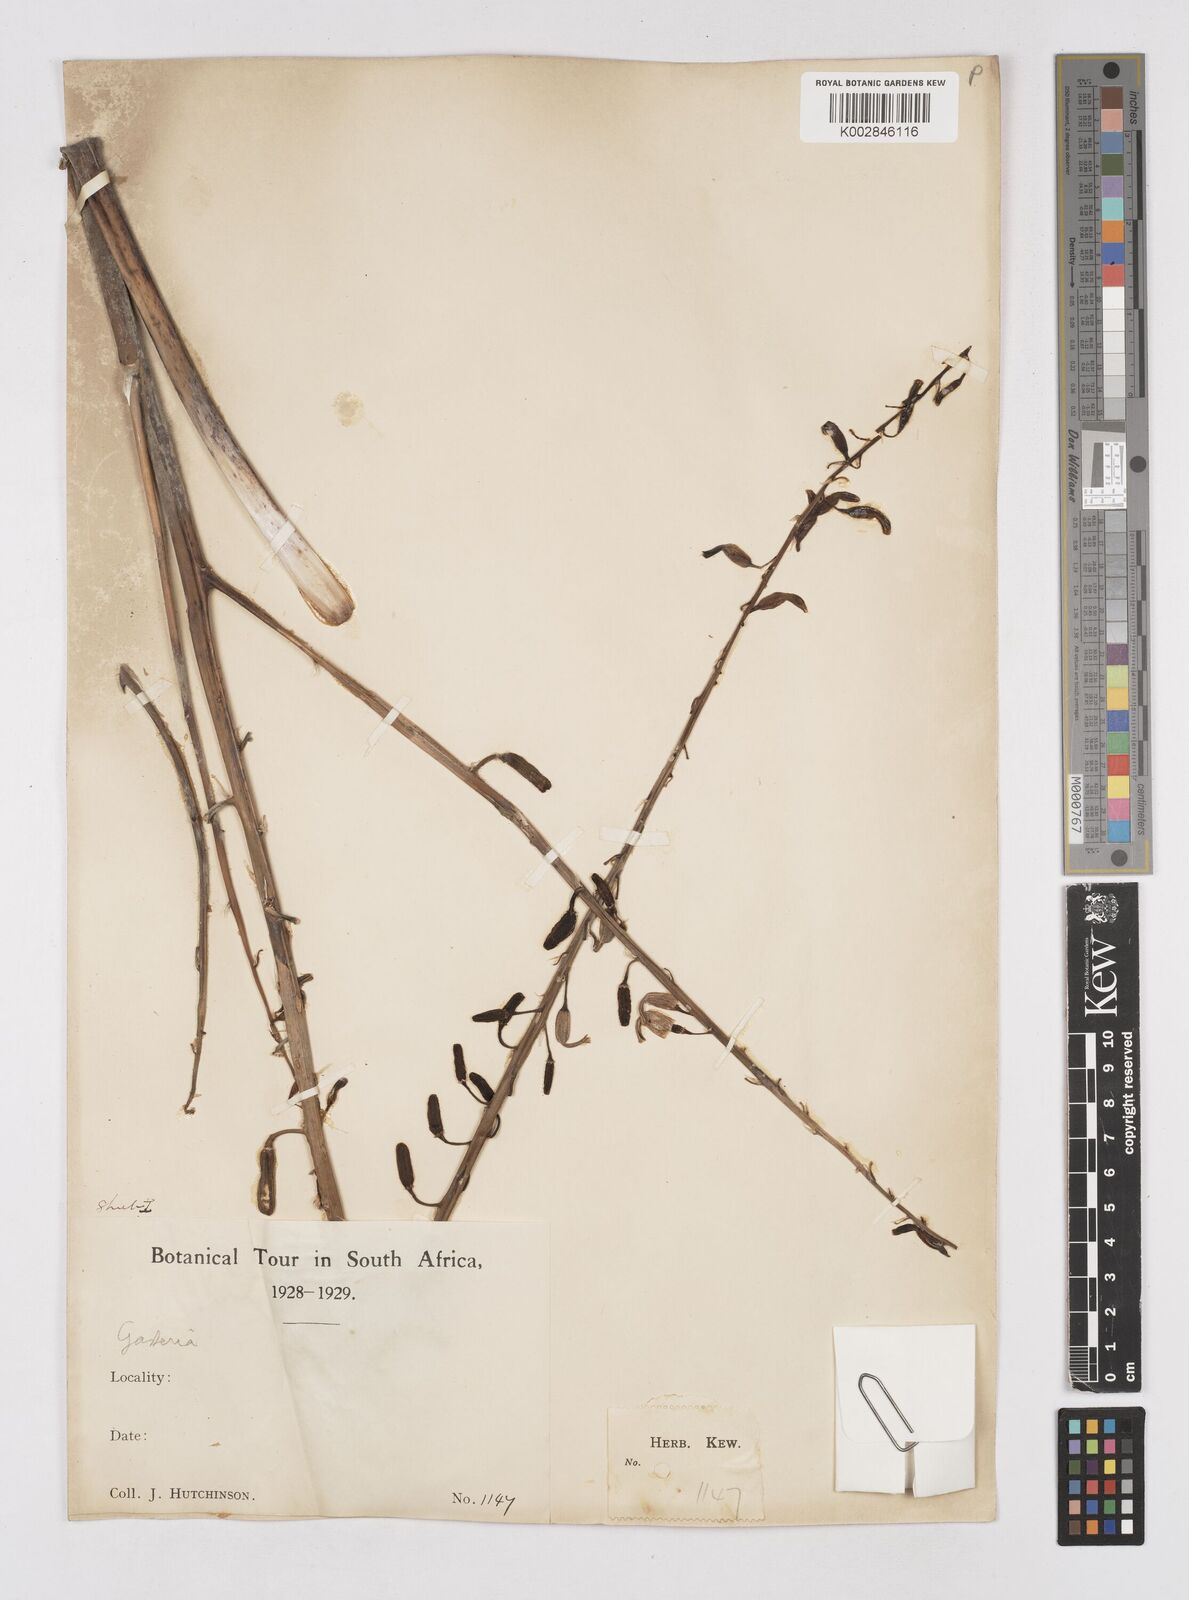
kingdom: Plantae
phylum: Tracheophyta
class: Liliopsida
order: Asparagales
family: Asphodelaceae
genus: Gasteria
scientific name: Gasteria
